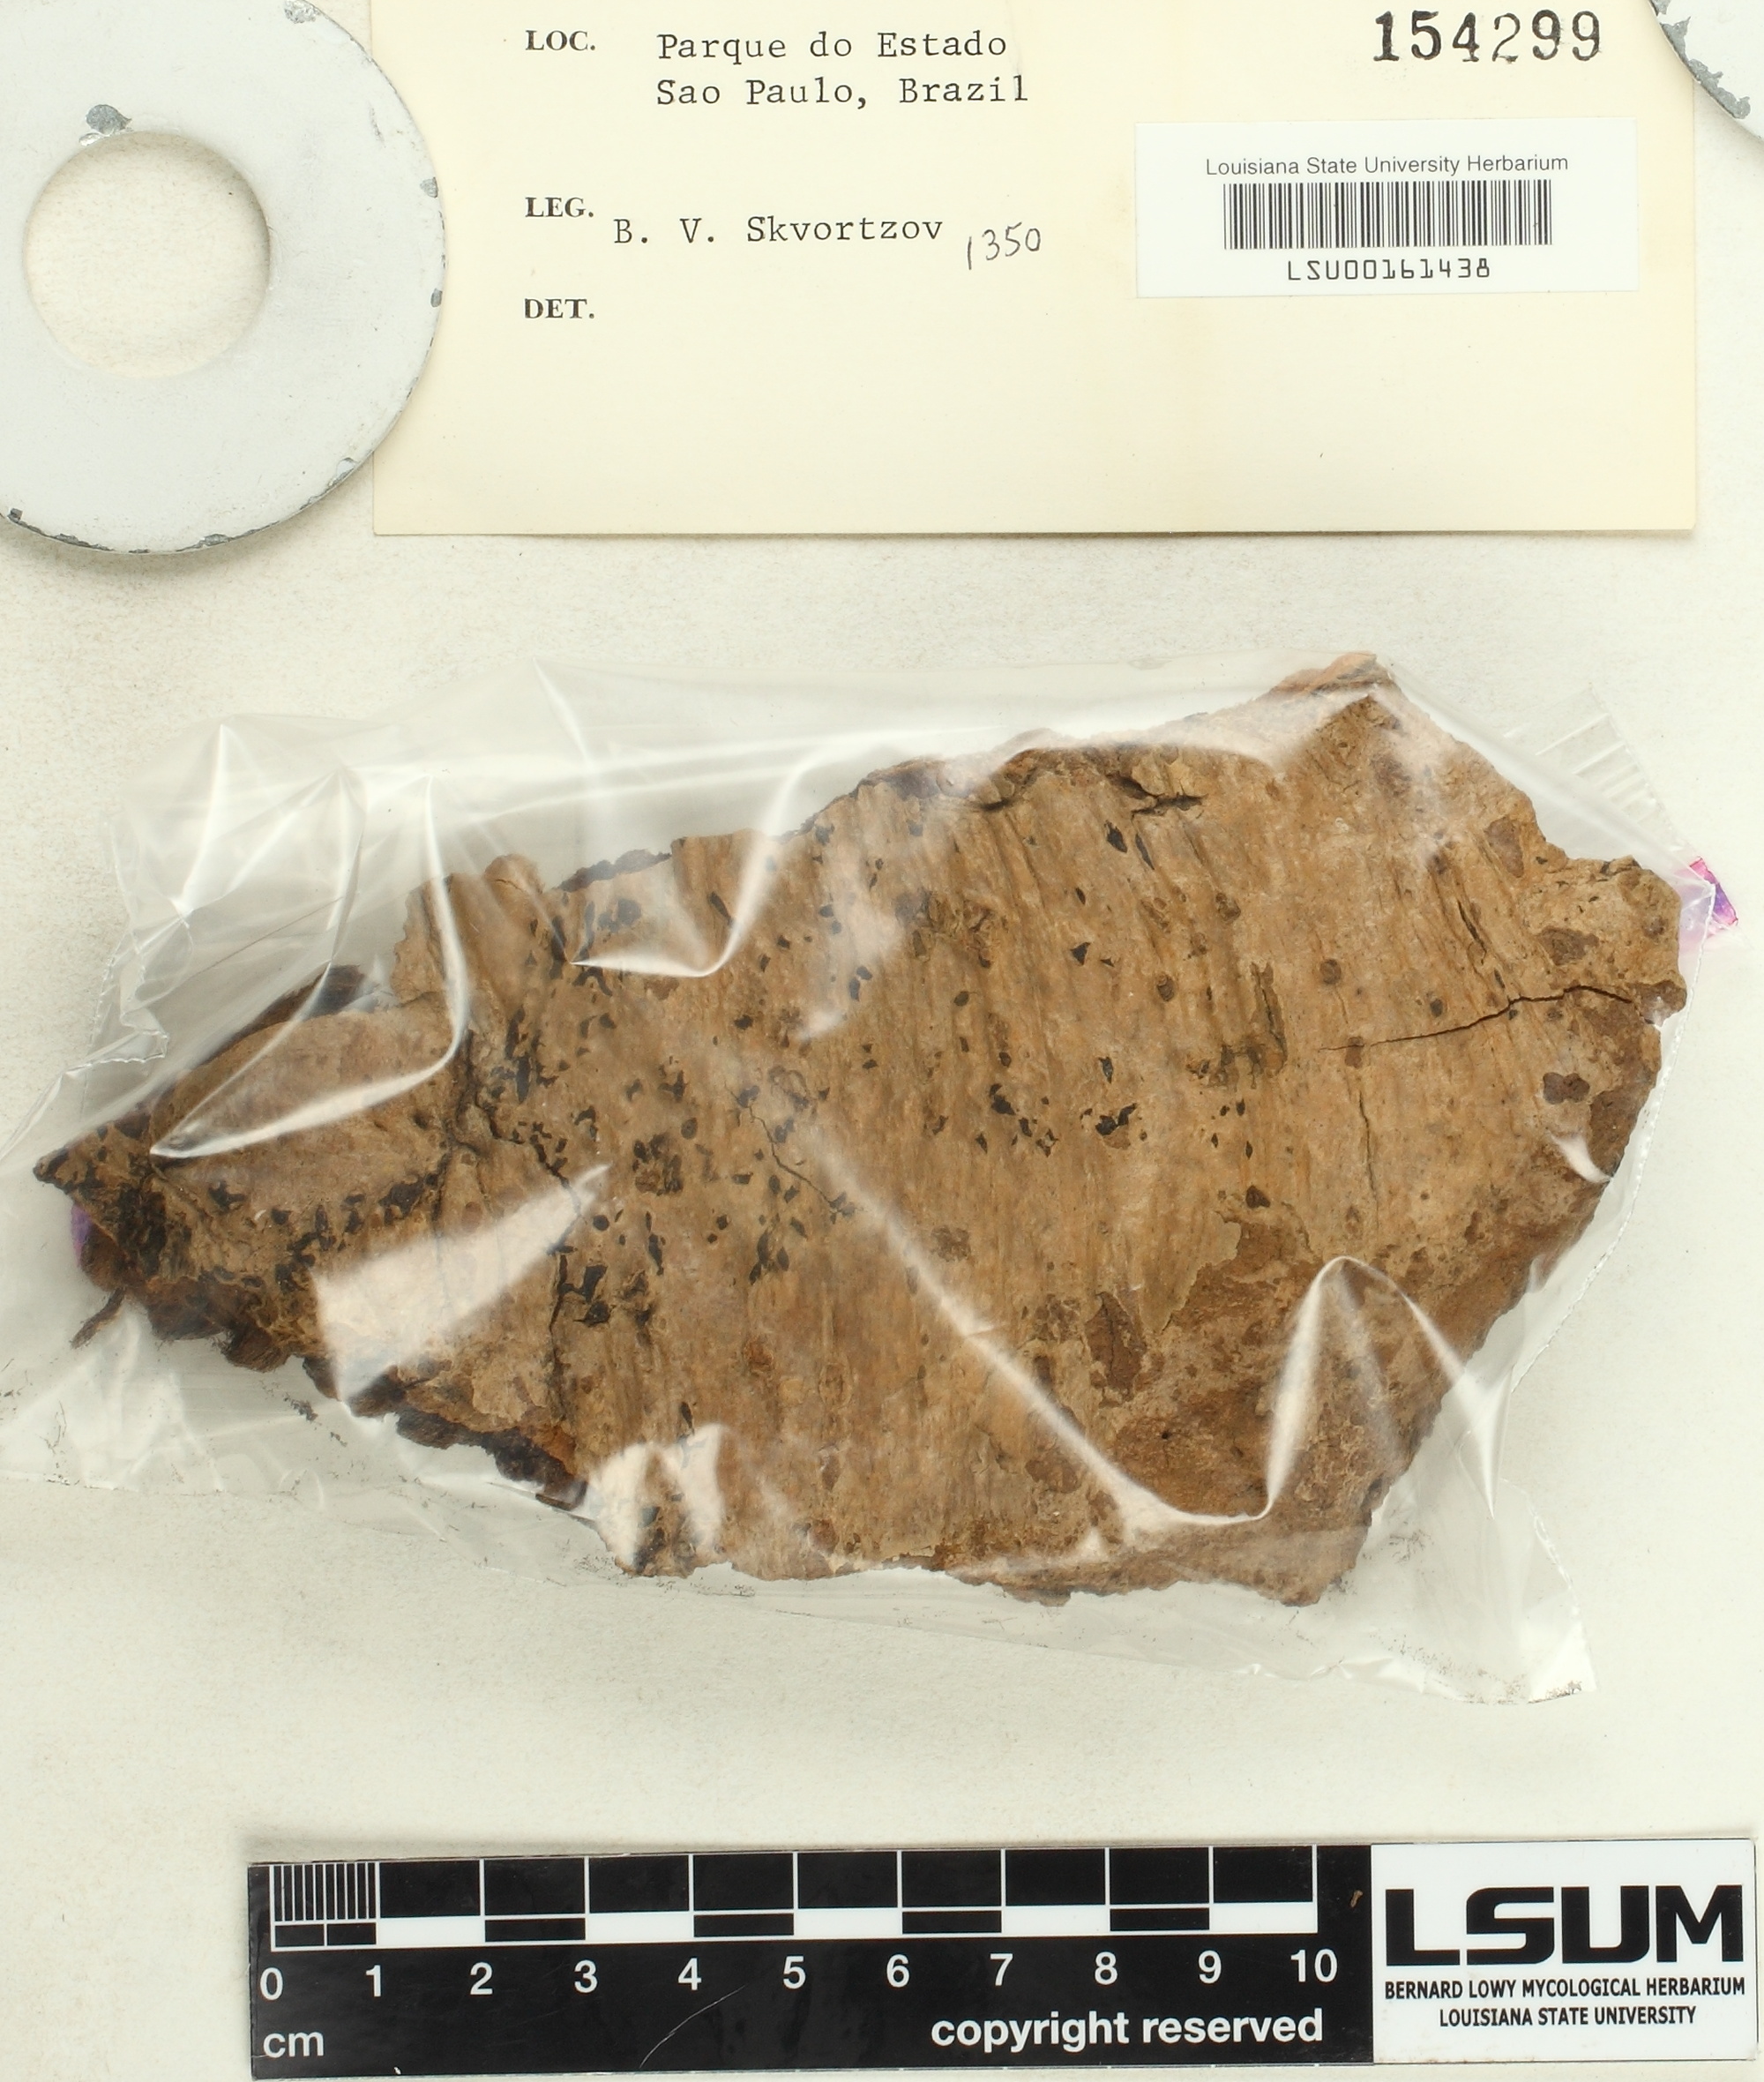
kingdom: Fungi
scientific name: Fungi
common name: Fungi
